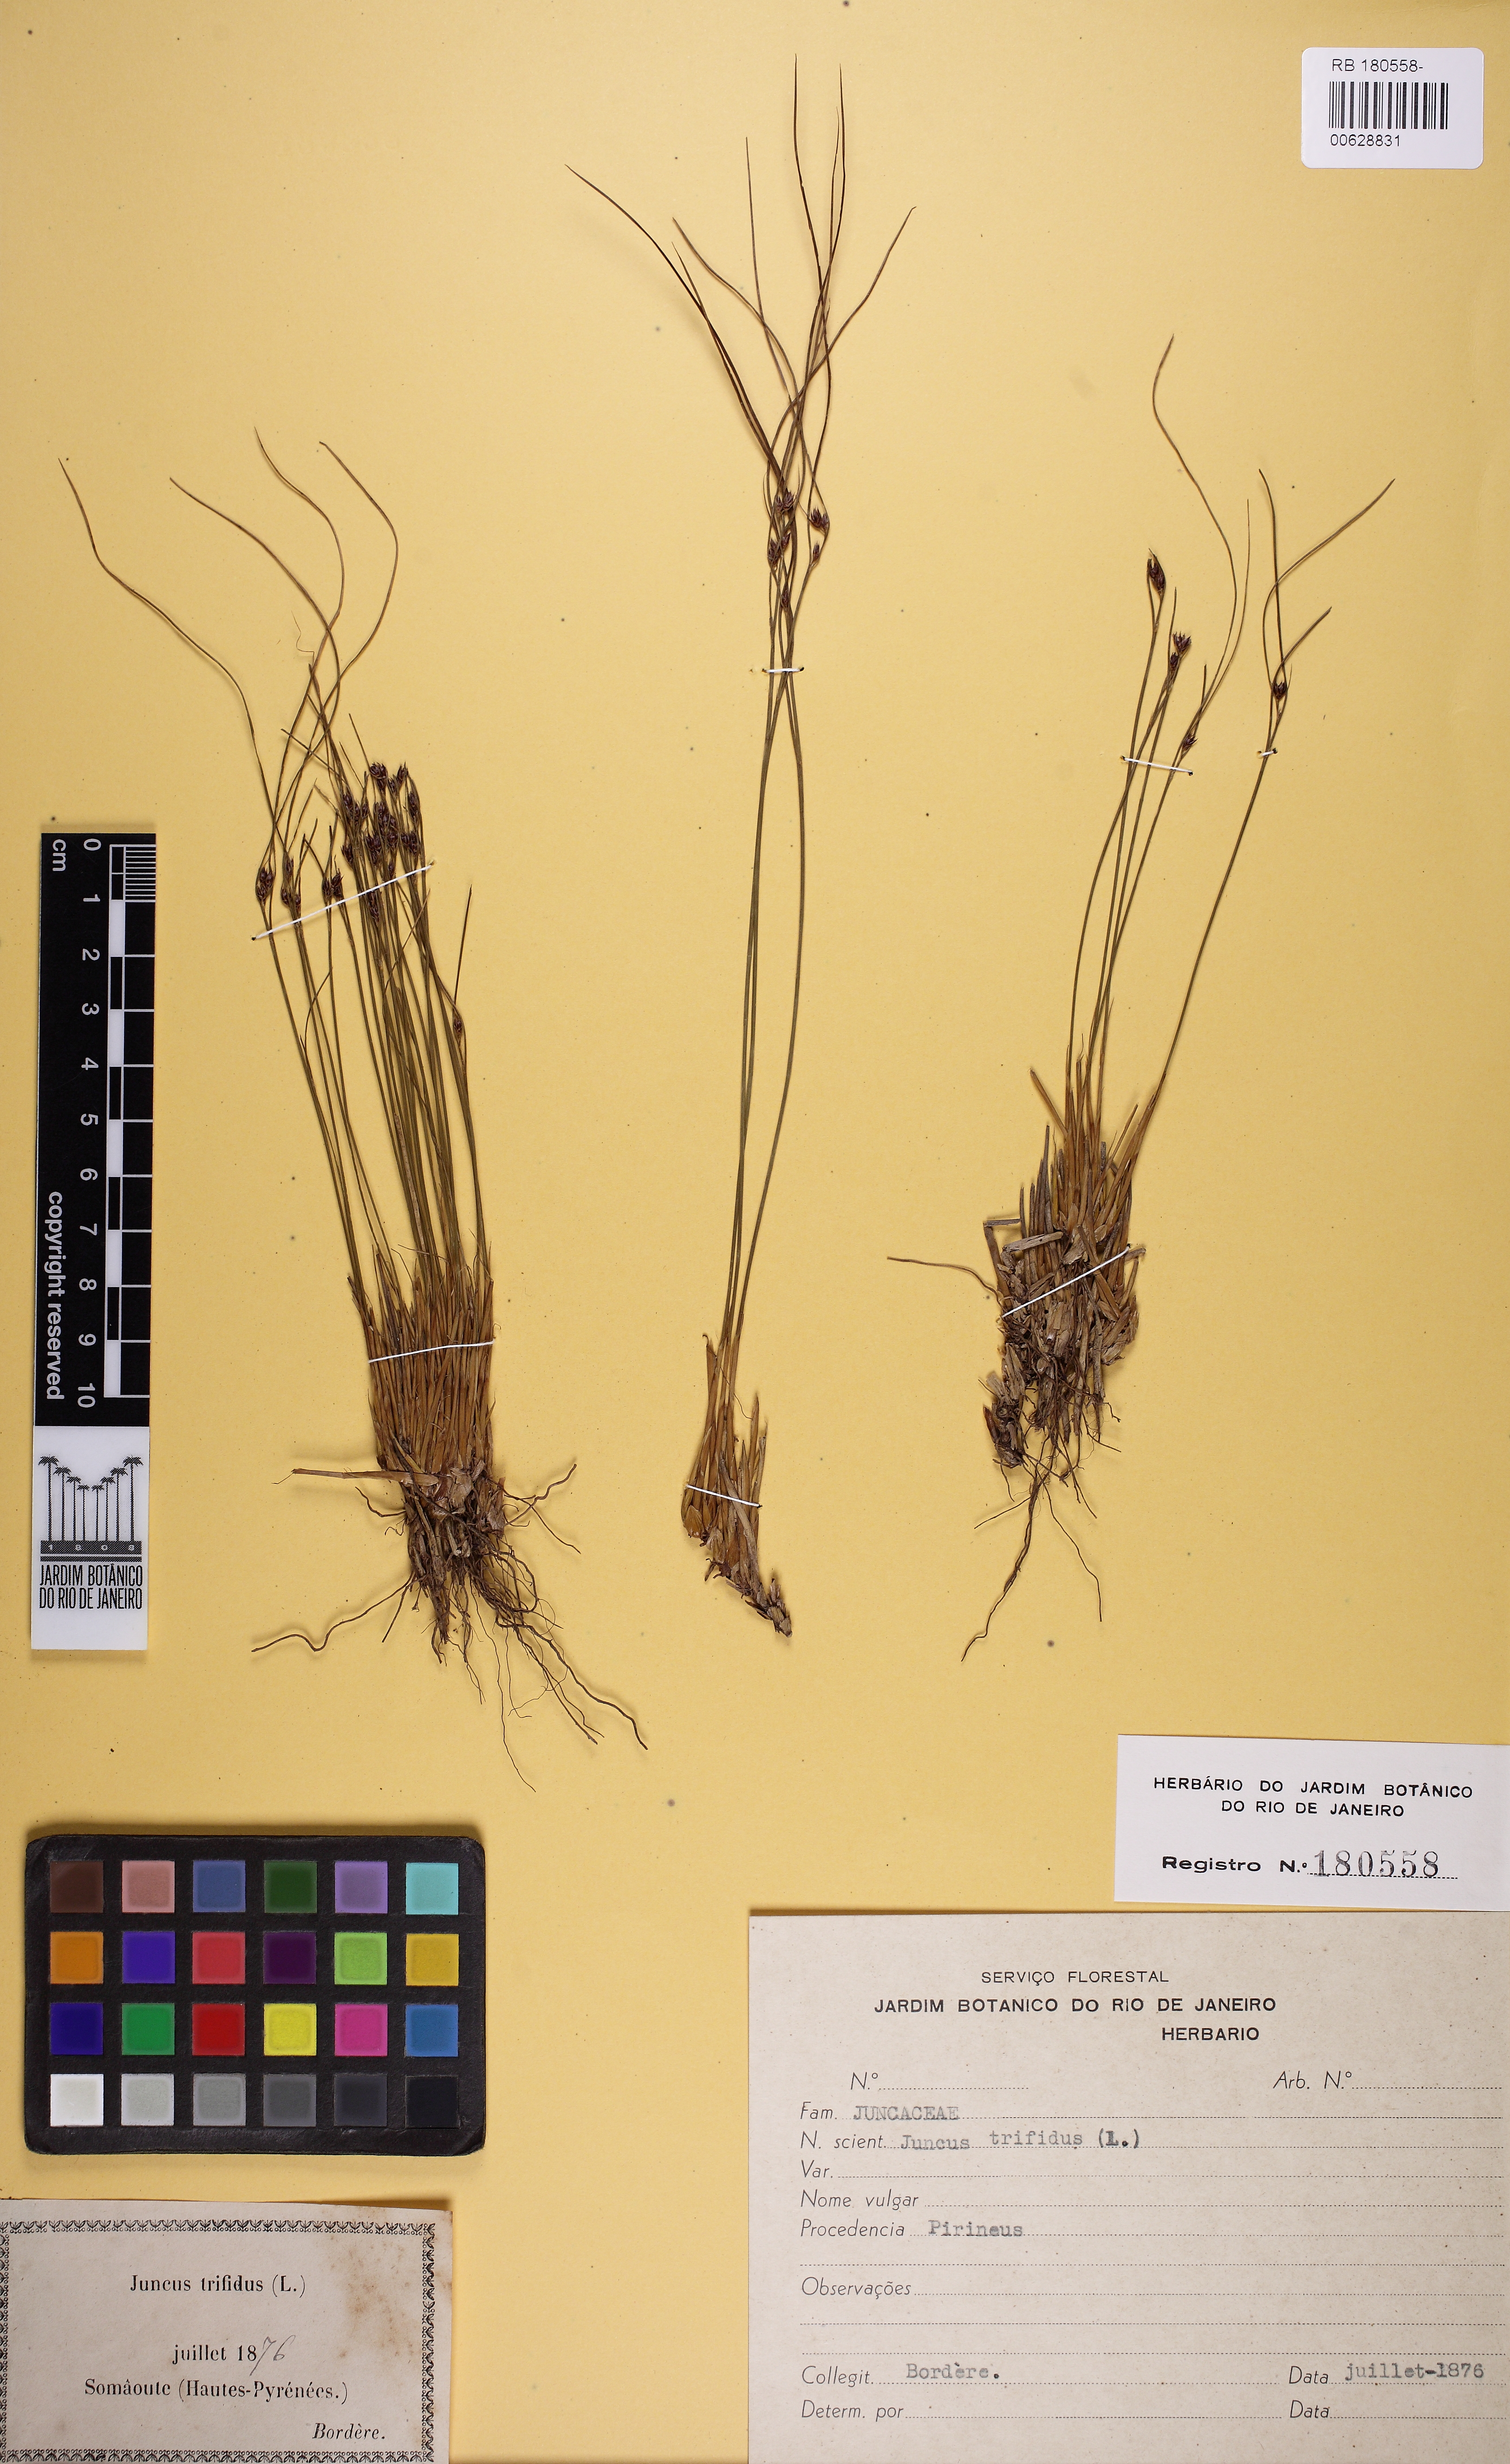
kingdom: Plantae
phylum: Tracheophyta
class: Liliopsida
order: Poales
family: Juncaceae
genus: Oreojuncus
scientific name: Oreojuncus trifidus
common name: Highland rush
